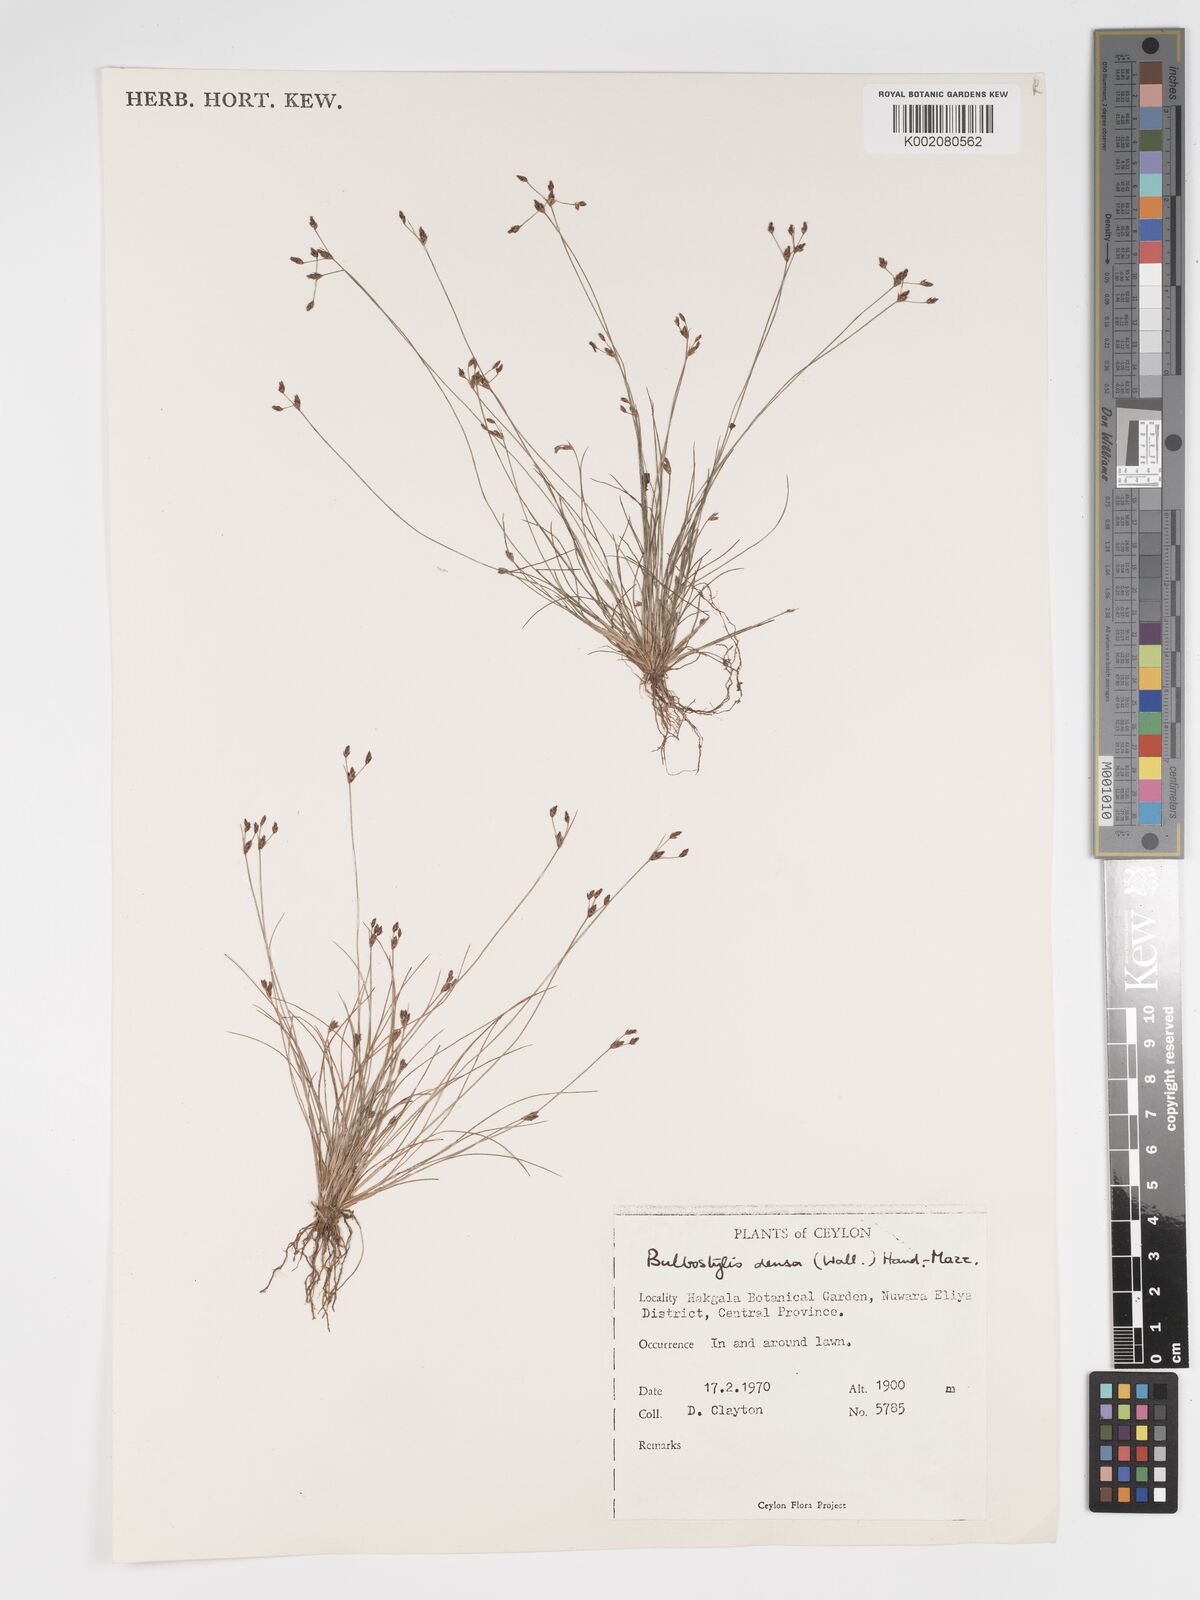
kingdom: Plantae
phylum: Tracheophyta
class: Liliopsida
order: Poales
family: Cyperaceae
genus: Bulbostylis
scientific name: Bulbostylis densa
